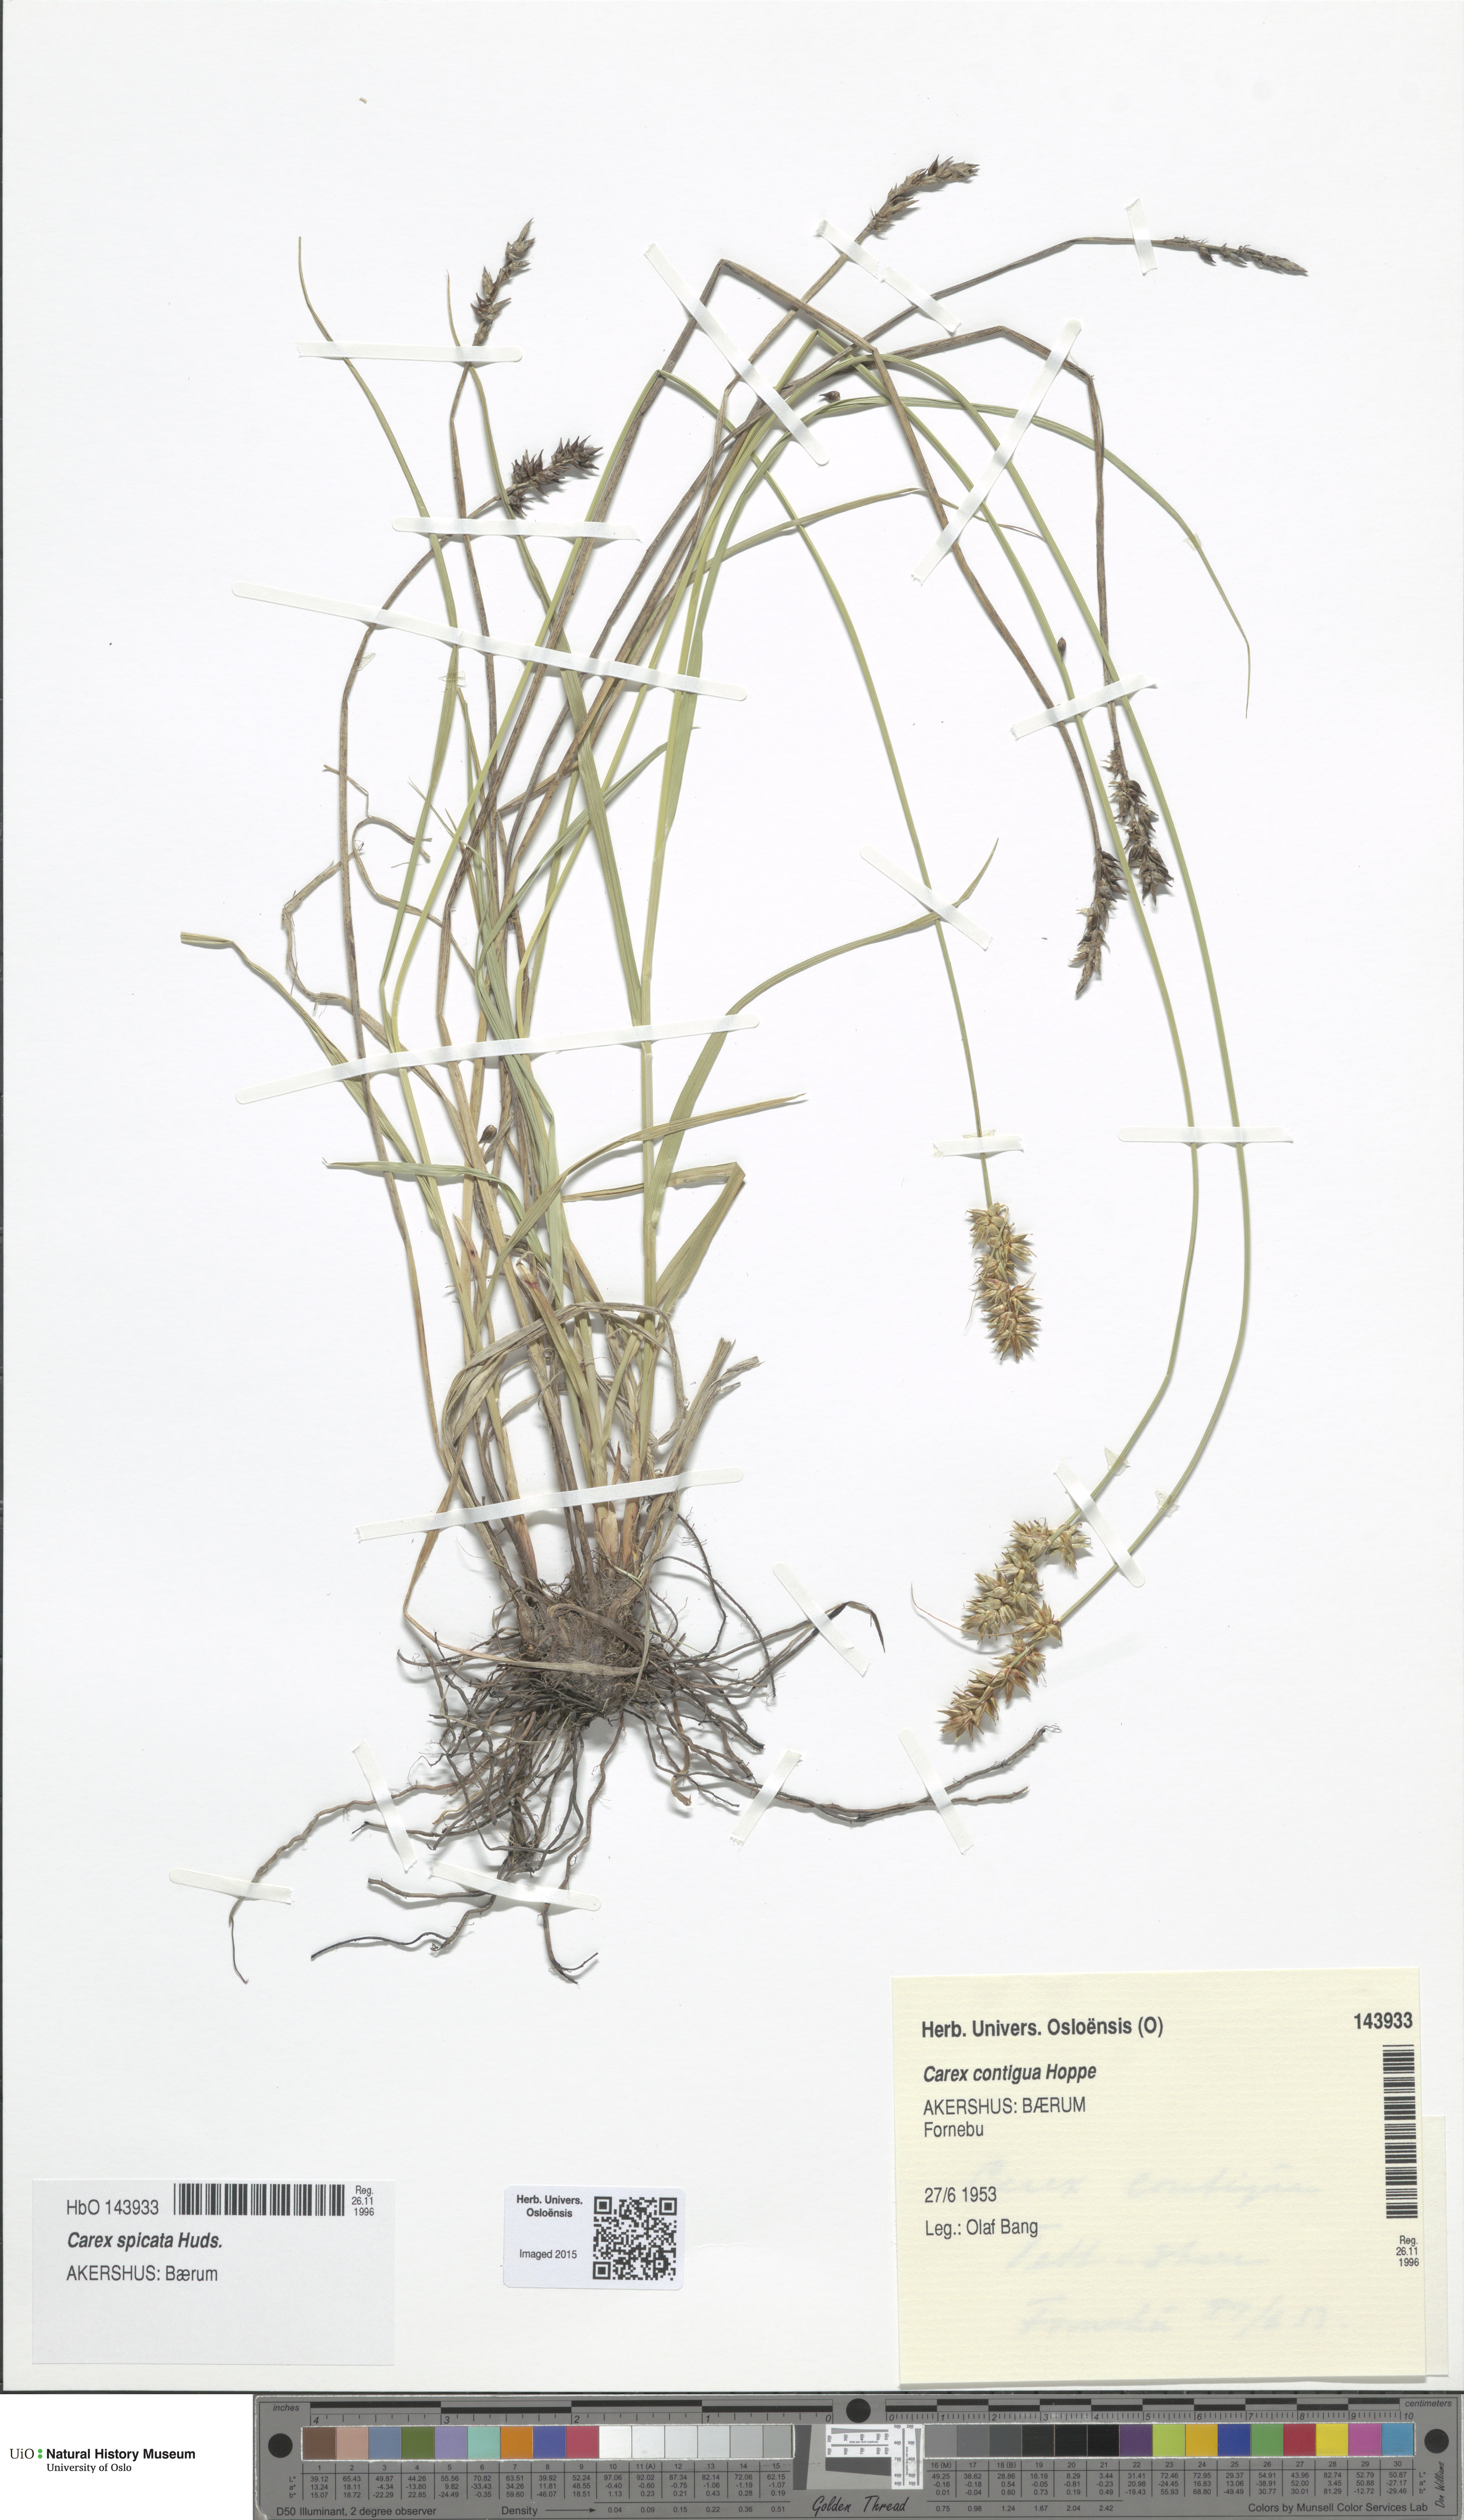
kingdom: Plantae
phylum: Tracheophyta
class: Liliopsida
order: Poales
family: Cyperaceae
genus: Carex
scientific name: Carex spicata
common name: Spiked sedge
